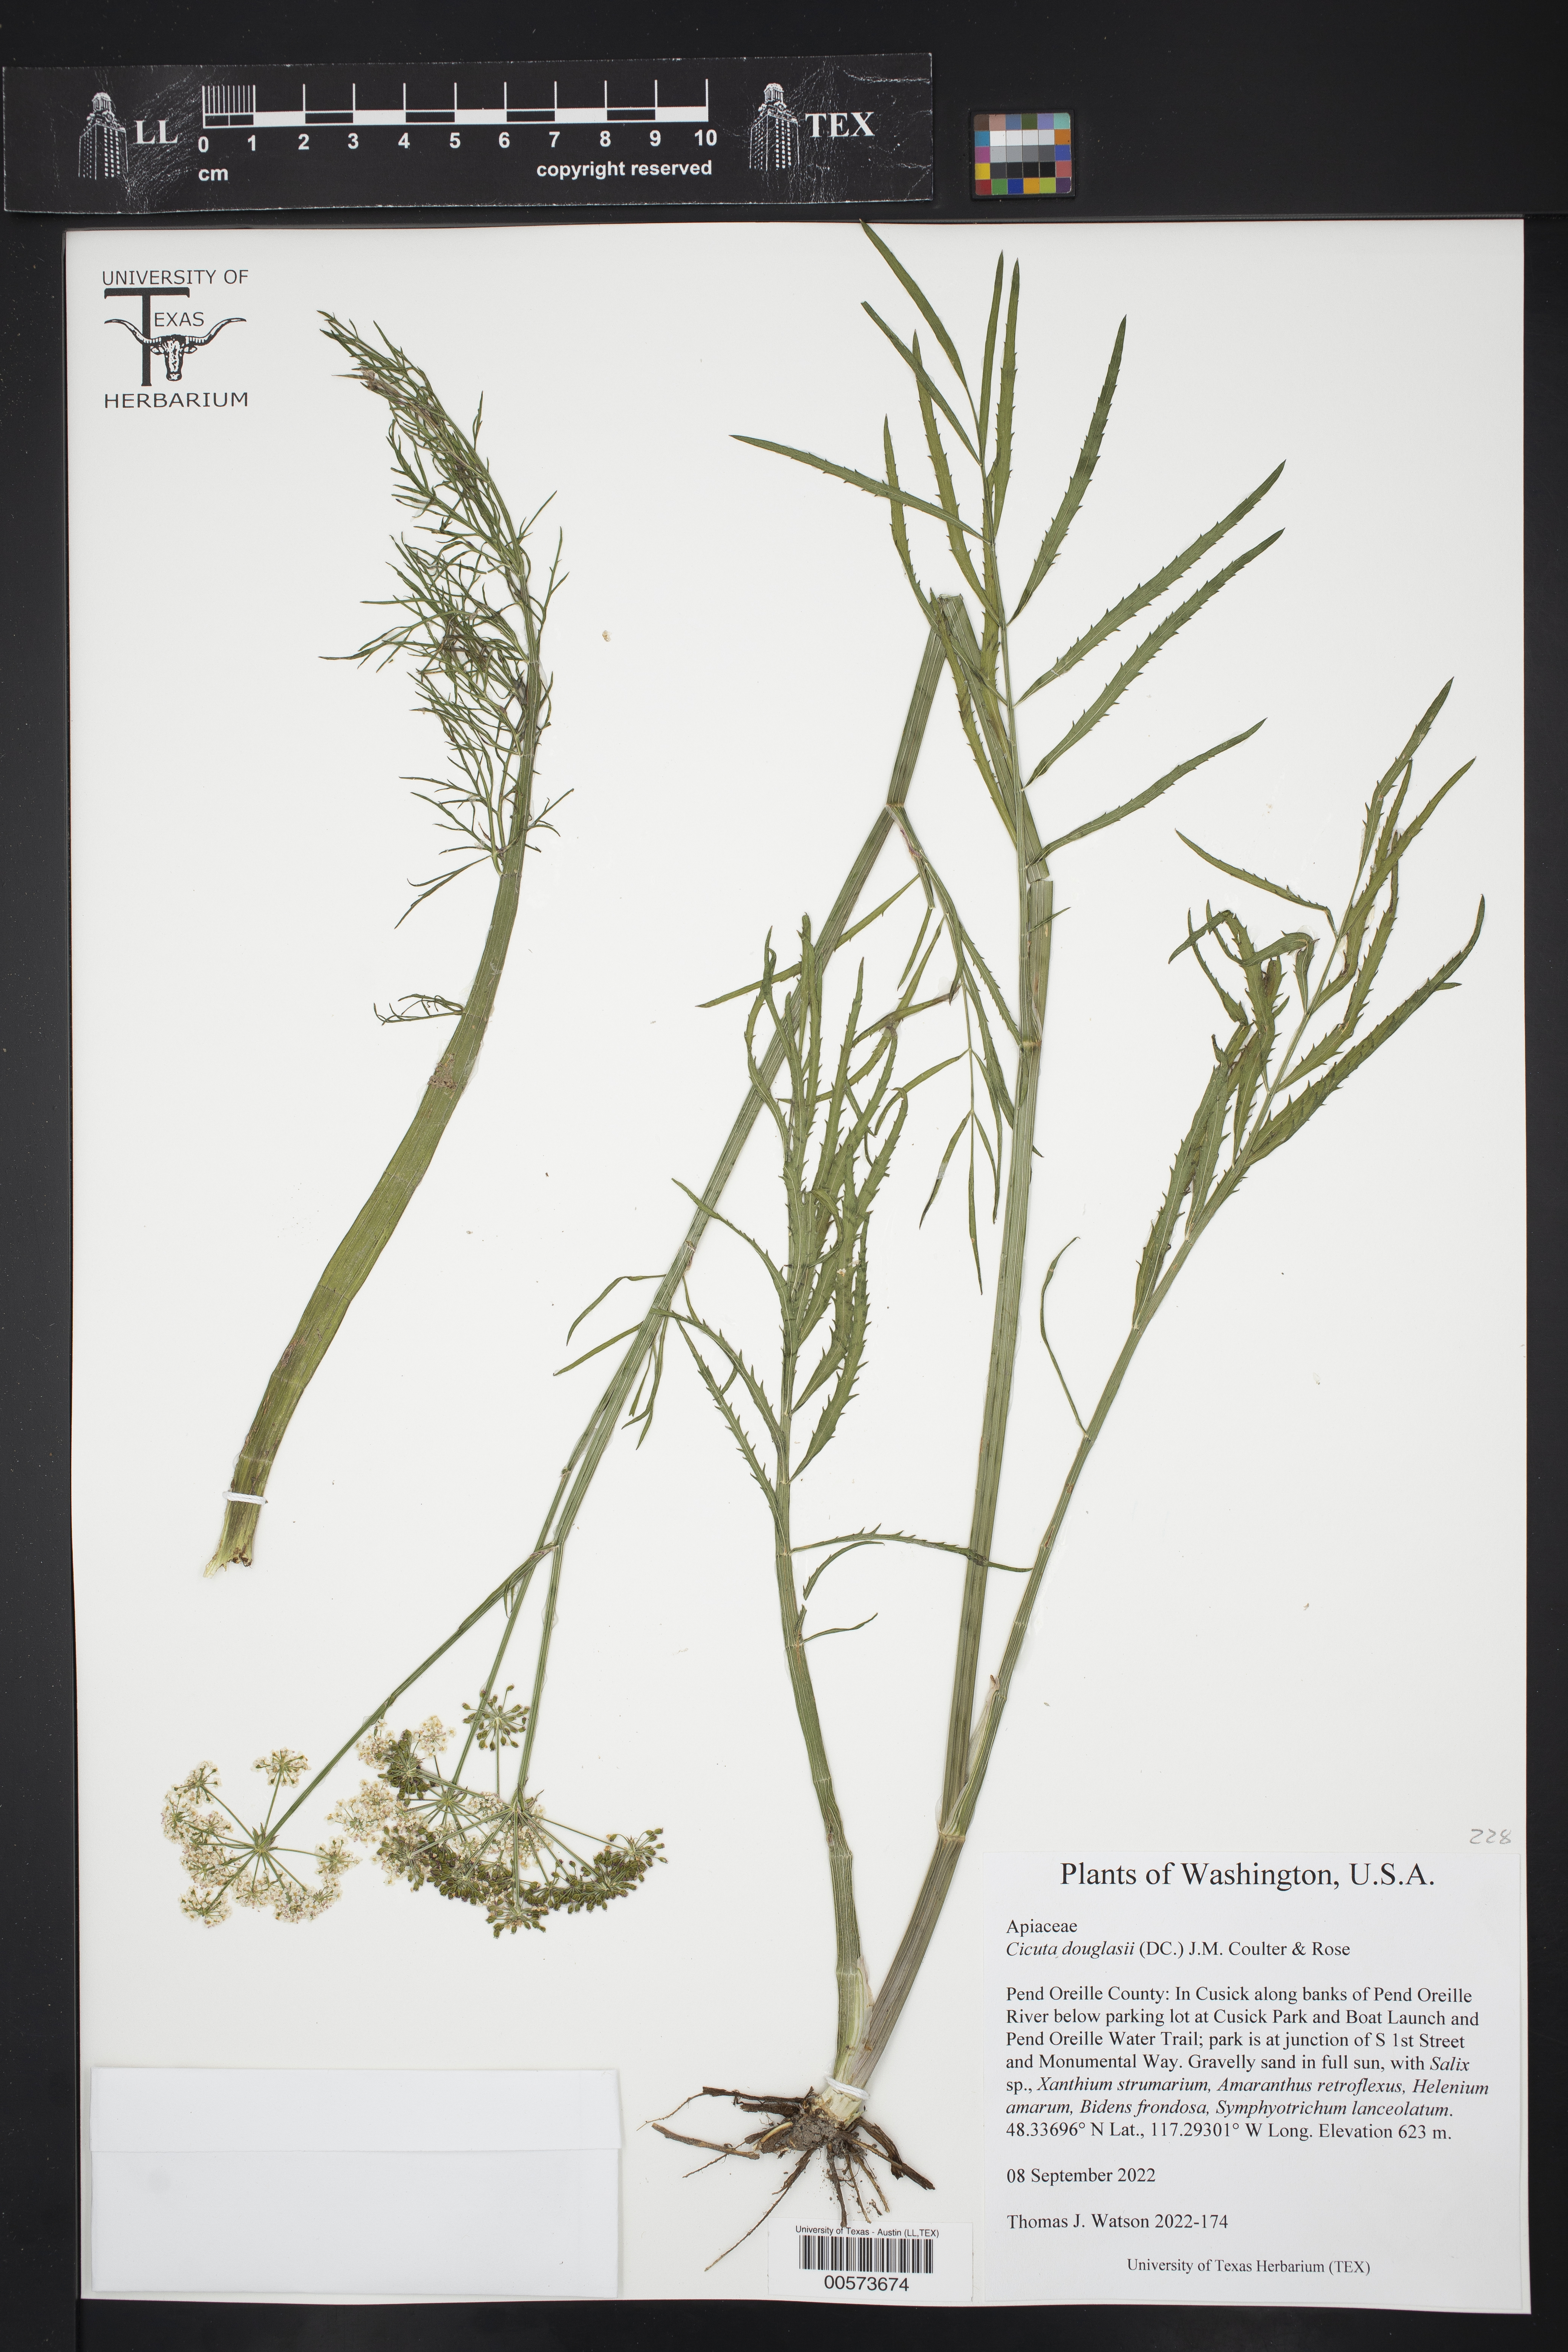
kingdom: Plantae
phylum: Tracheophyta
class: Magnoliopsida
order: Apiales
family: Apiaceae
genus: Cicuta
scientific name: Cicuta douglasii
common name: Western water-hemlock
